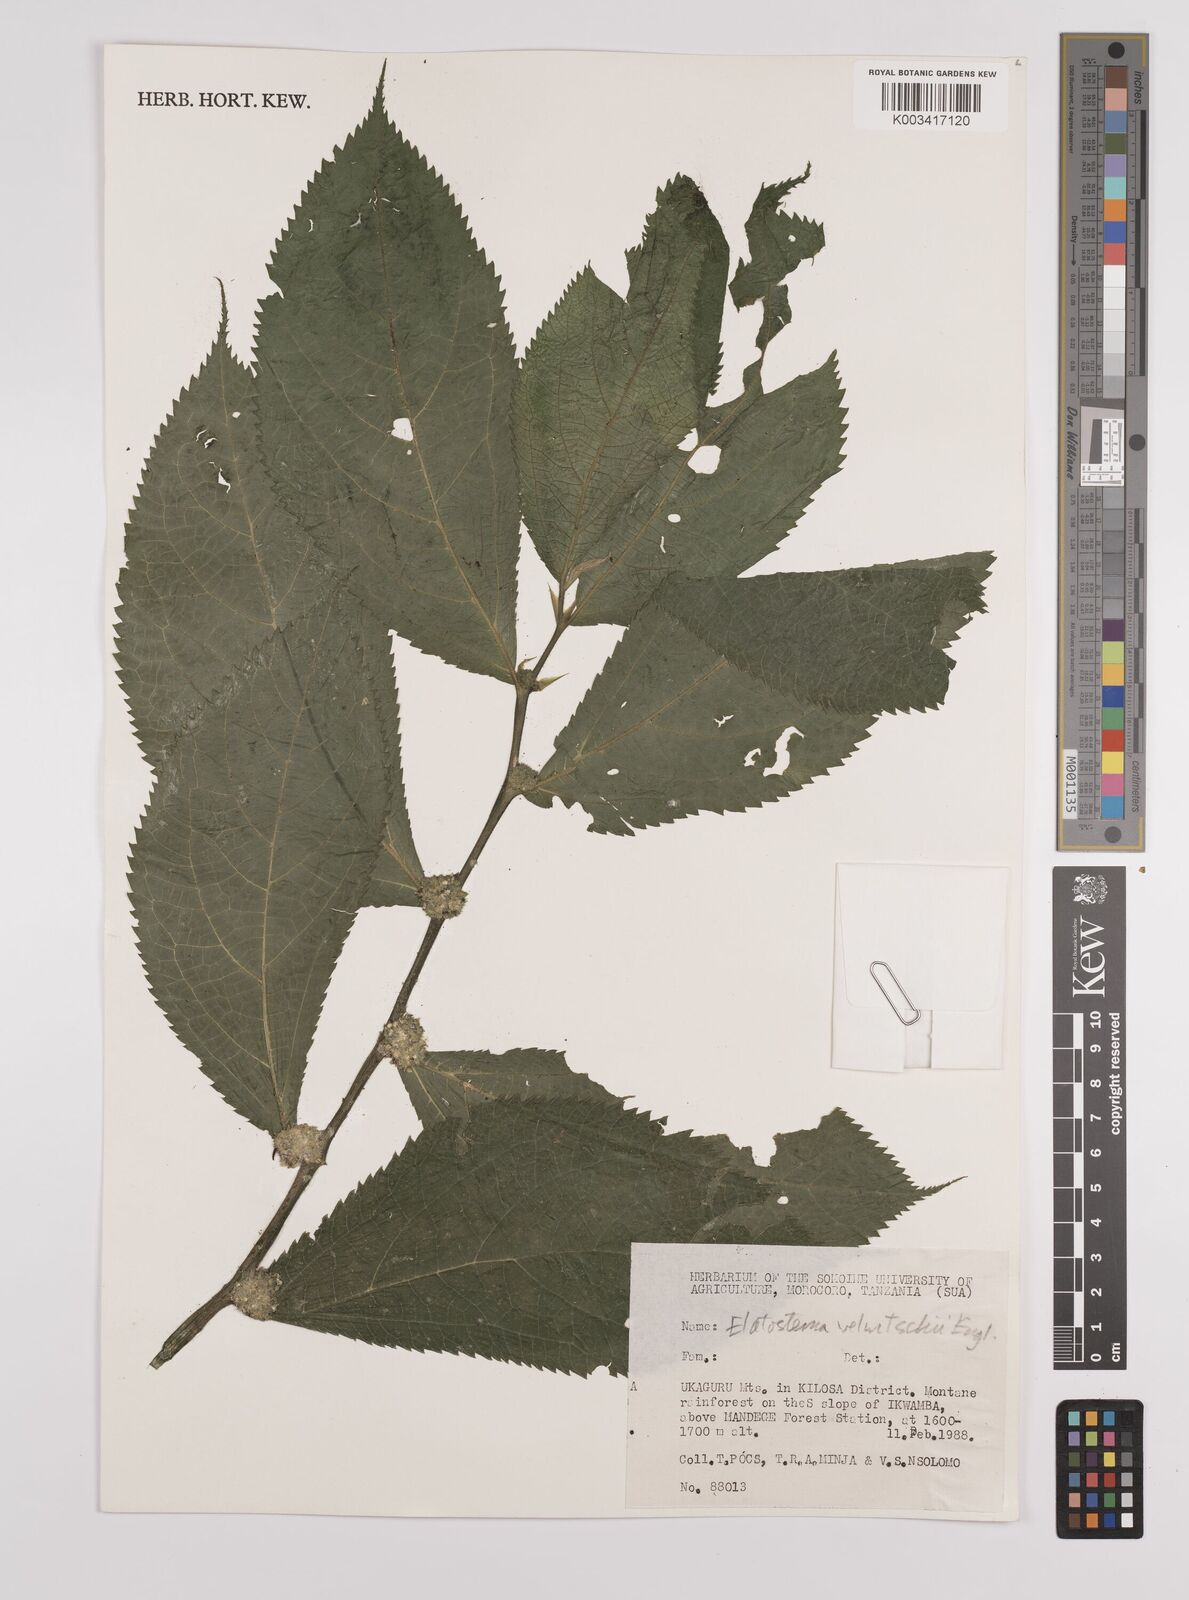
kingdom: Plantae
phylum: Tracheophyta
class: Magnoliopsida
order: Rosales
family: Urticaceae
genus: Elatostema
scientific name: Elatostema welwitschii
